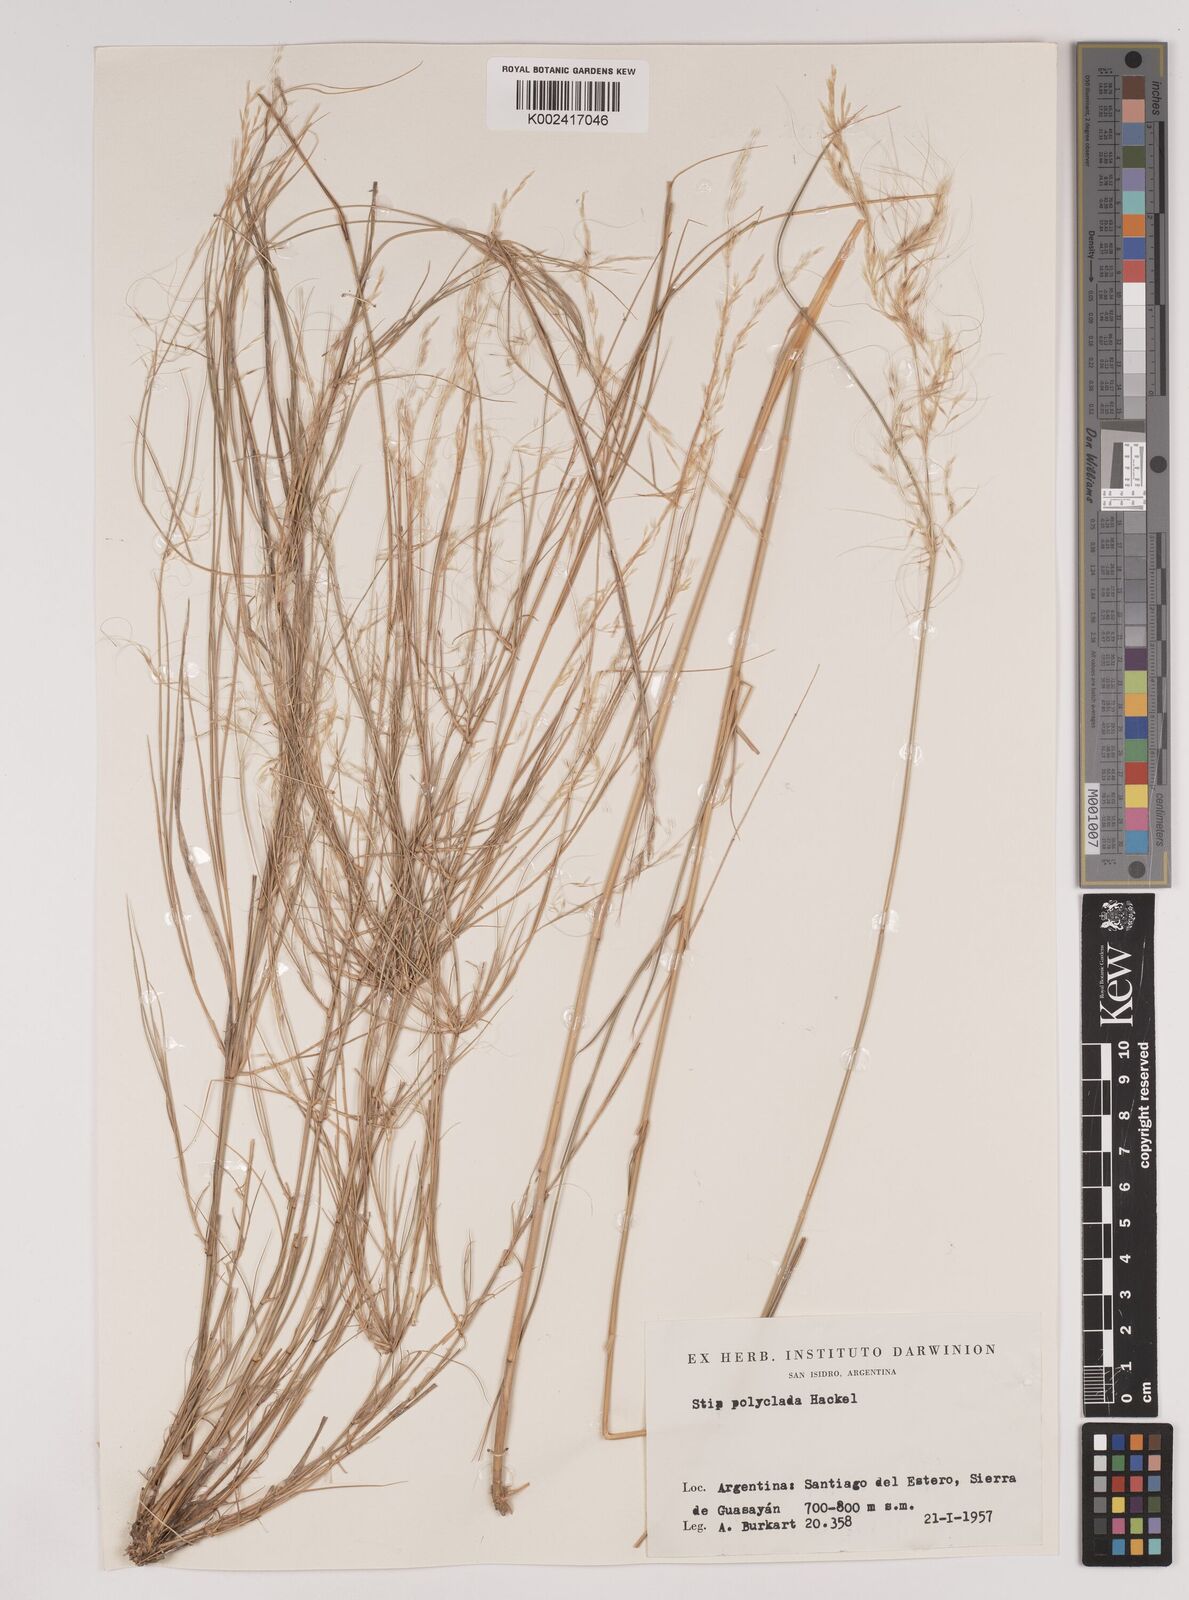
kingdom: Plantae
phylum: Tracheophyta
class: Liliopsida
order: Poales
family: Poaceae
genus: Stipa
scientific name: Stipa polyclada
